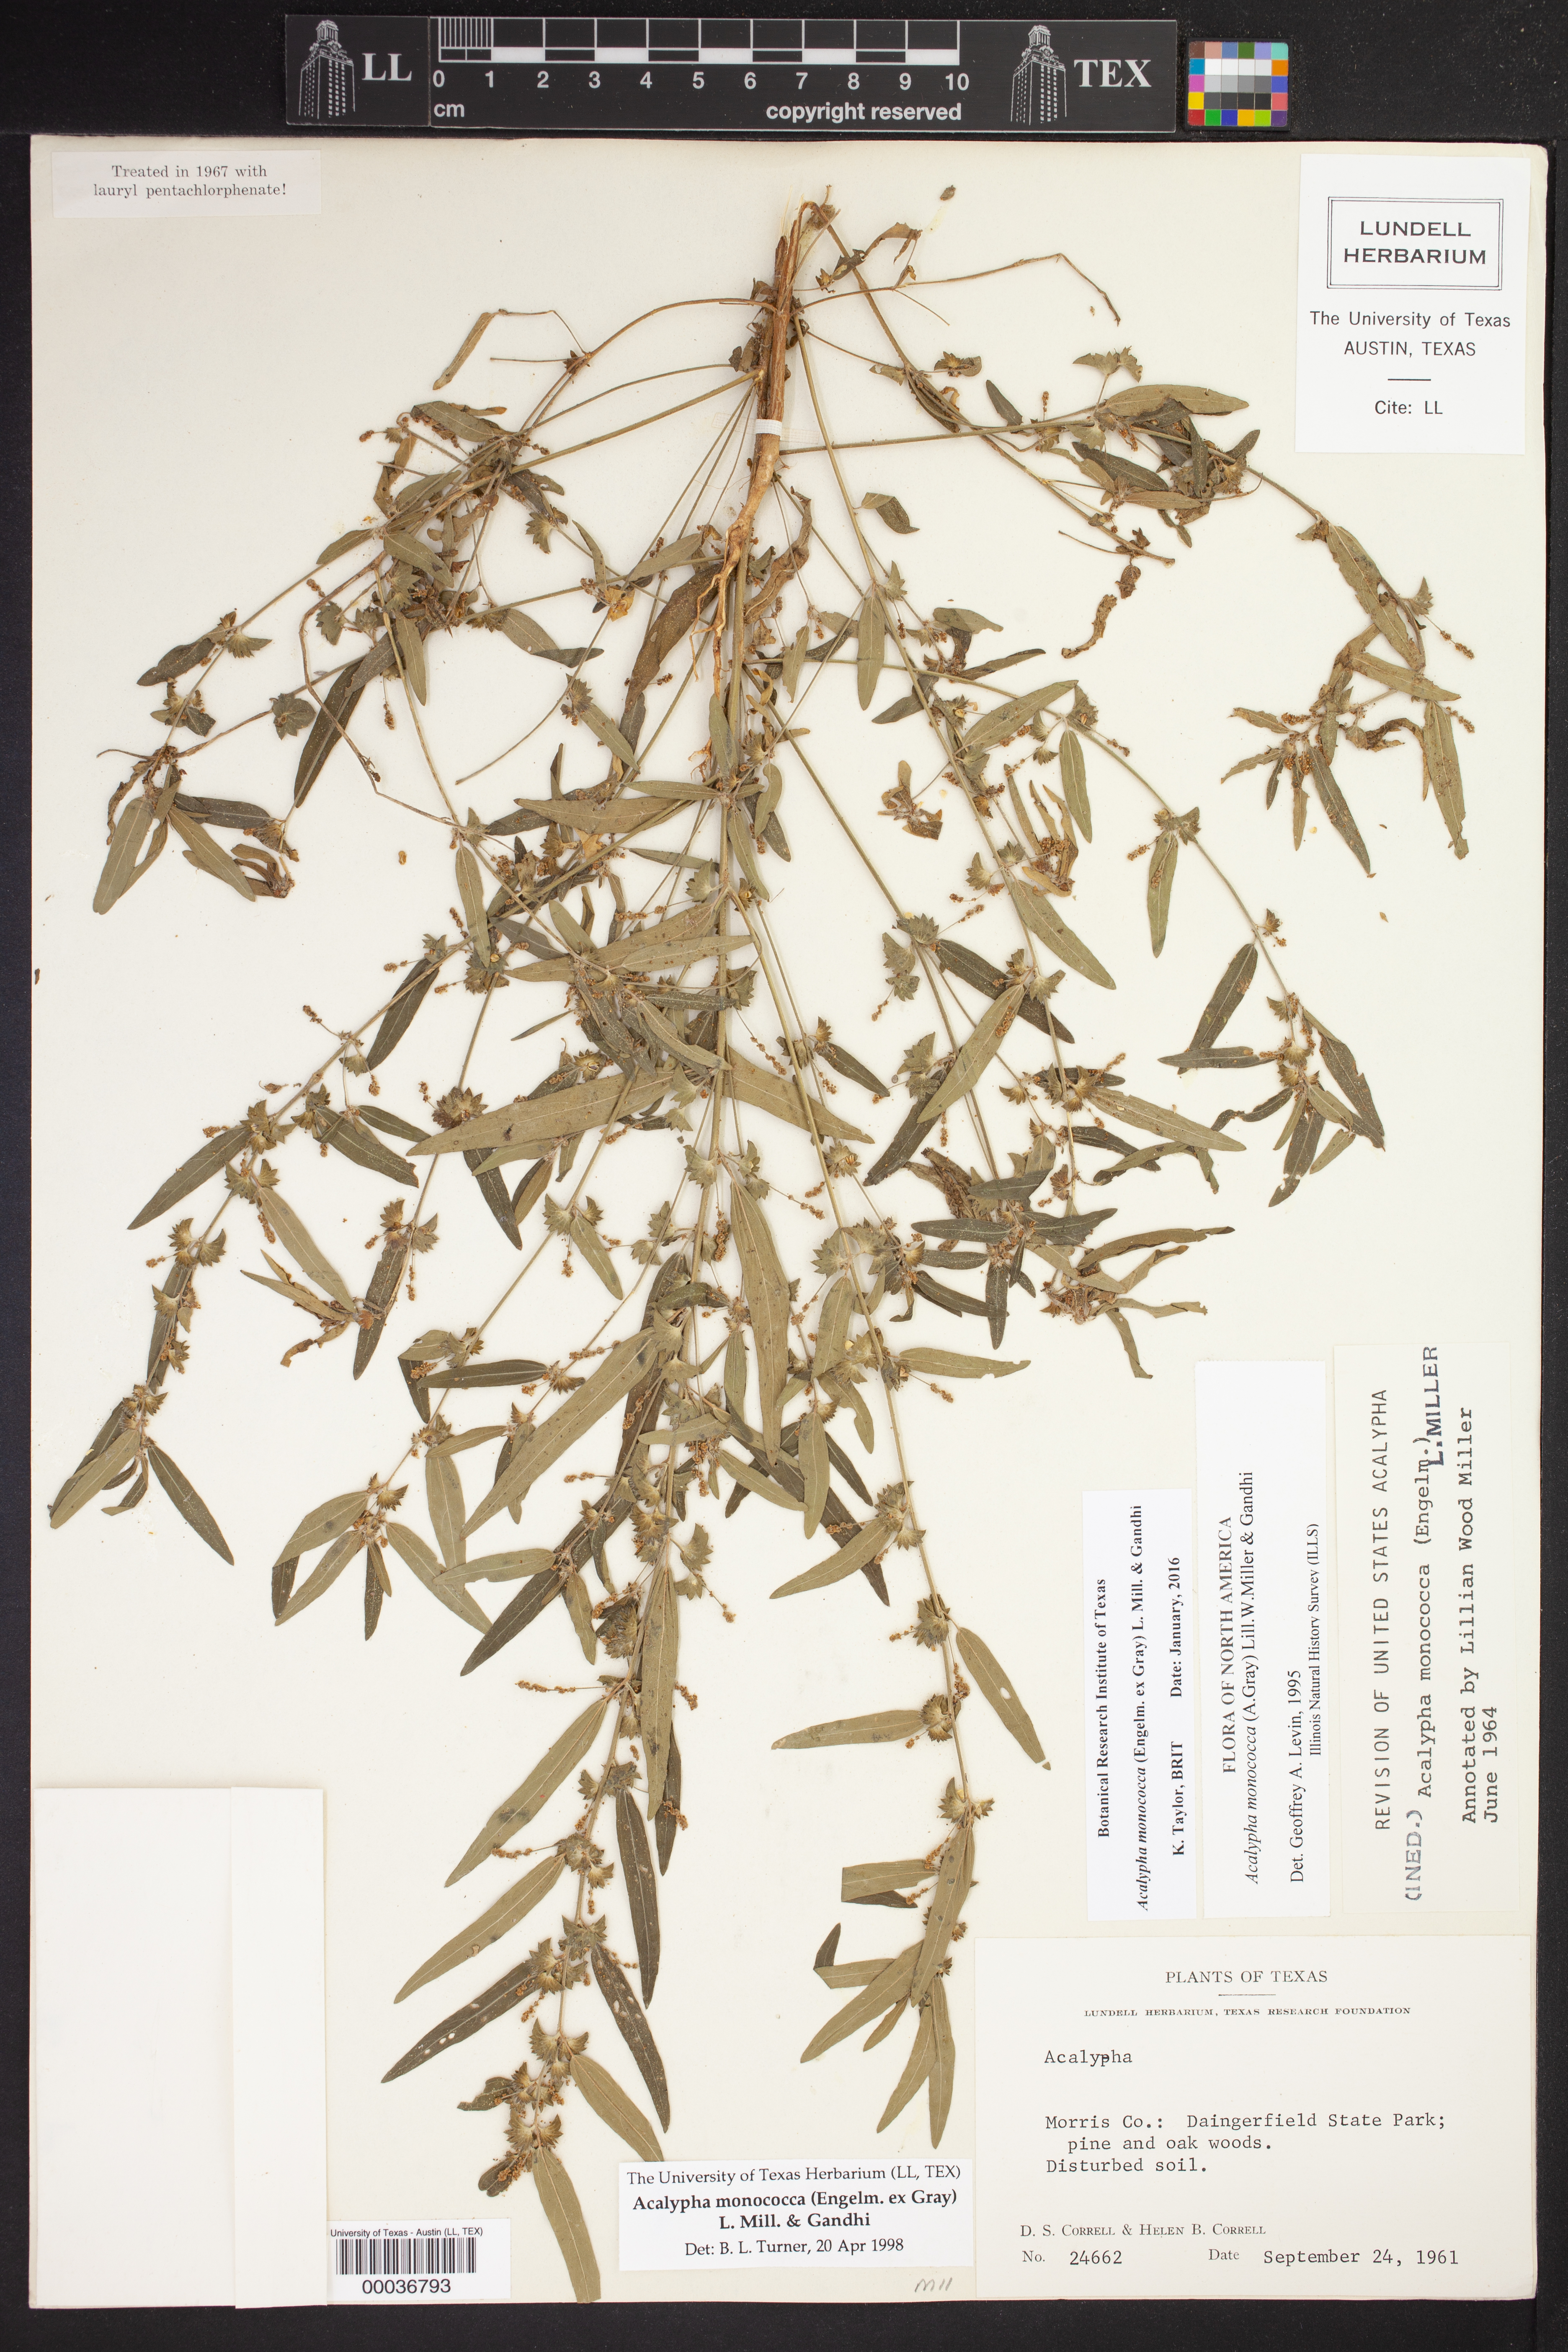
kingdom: Plantae
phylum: Tracheophyta
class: Magnoliopsida
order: Malpighiales
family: Euphorbiaceae
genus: Acalypha
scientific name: Acalypha monococca
